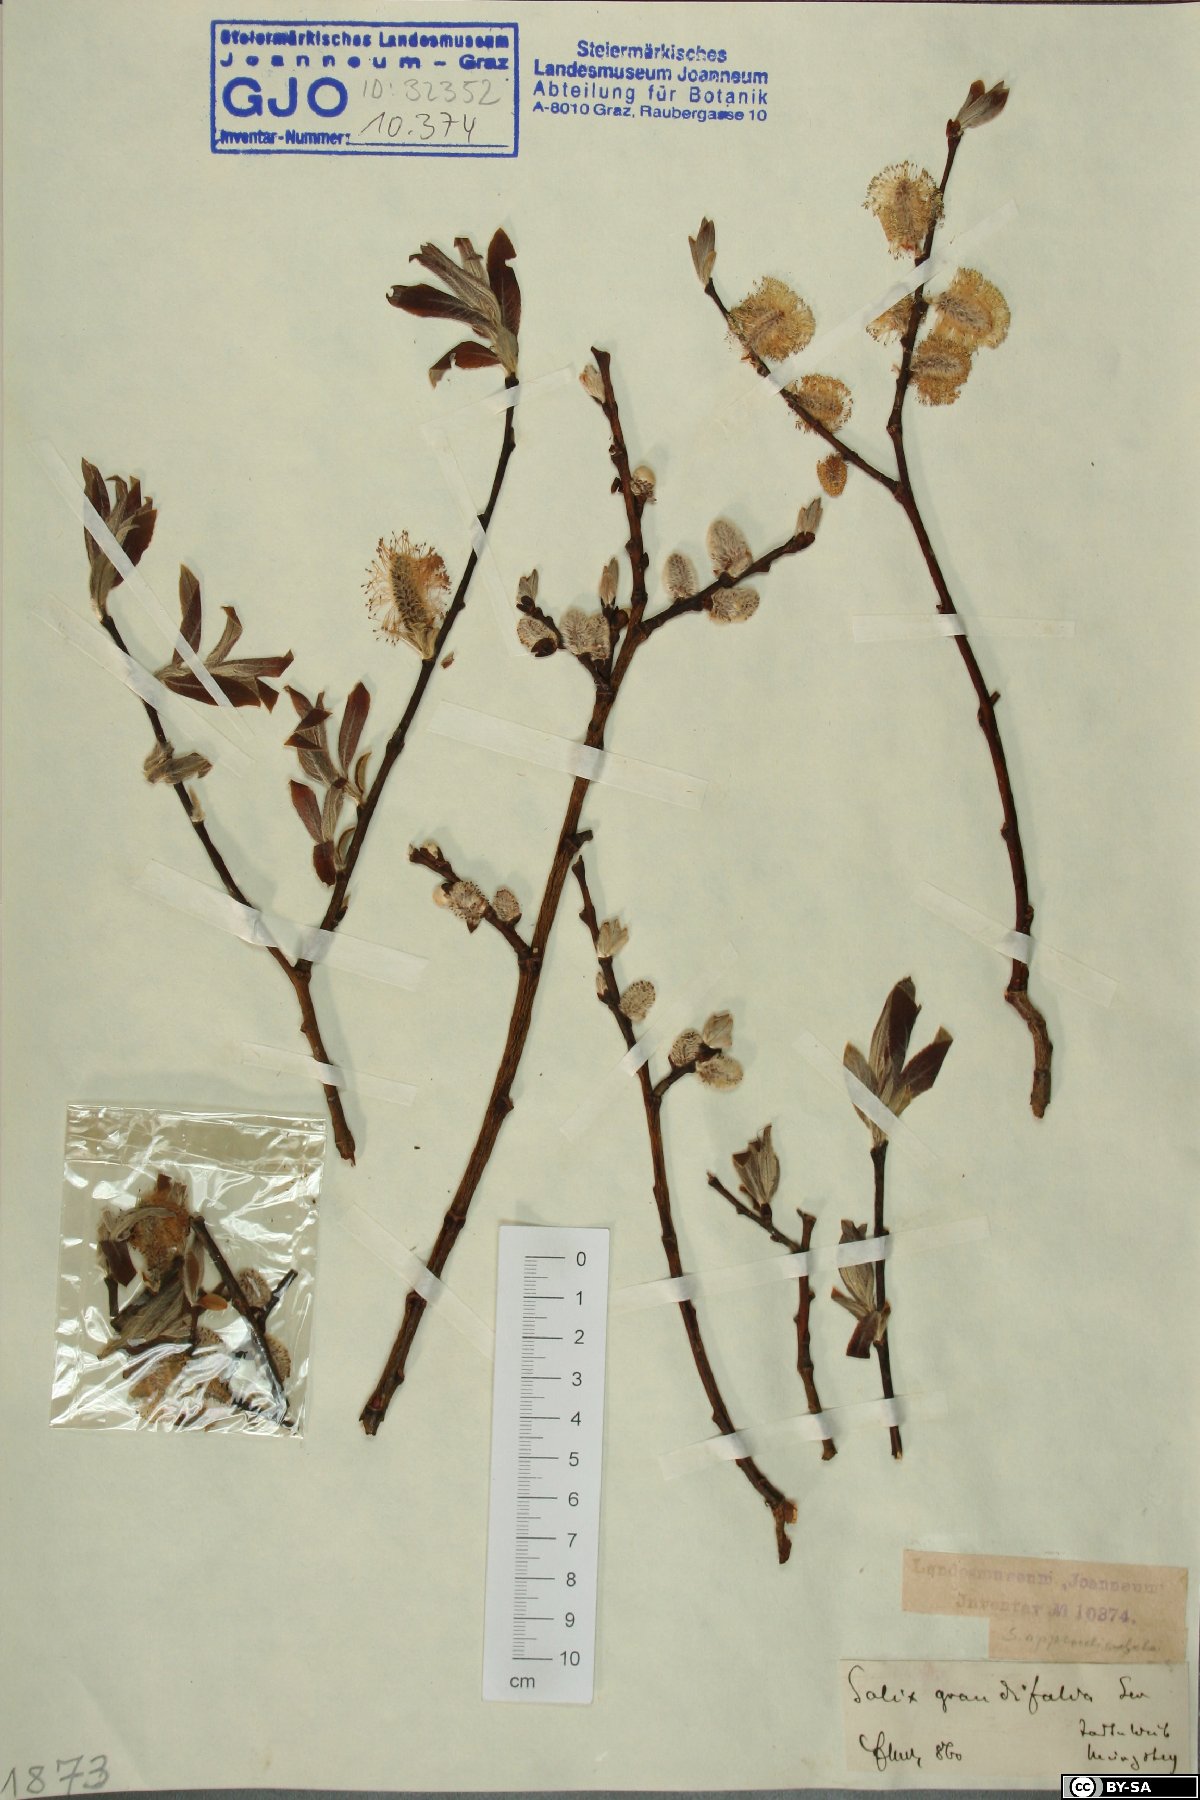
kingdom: Plantae
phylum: Tracheophyta
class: Magnoliopsida
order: Malpighiales
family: Salicaceae
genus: Salix
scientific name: Salix appendiculata
